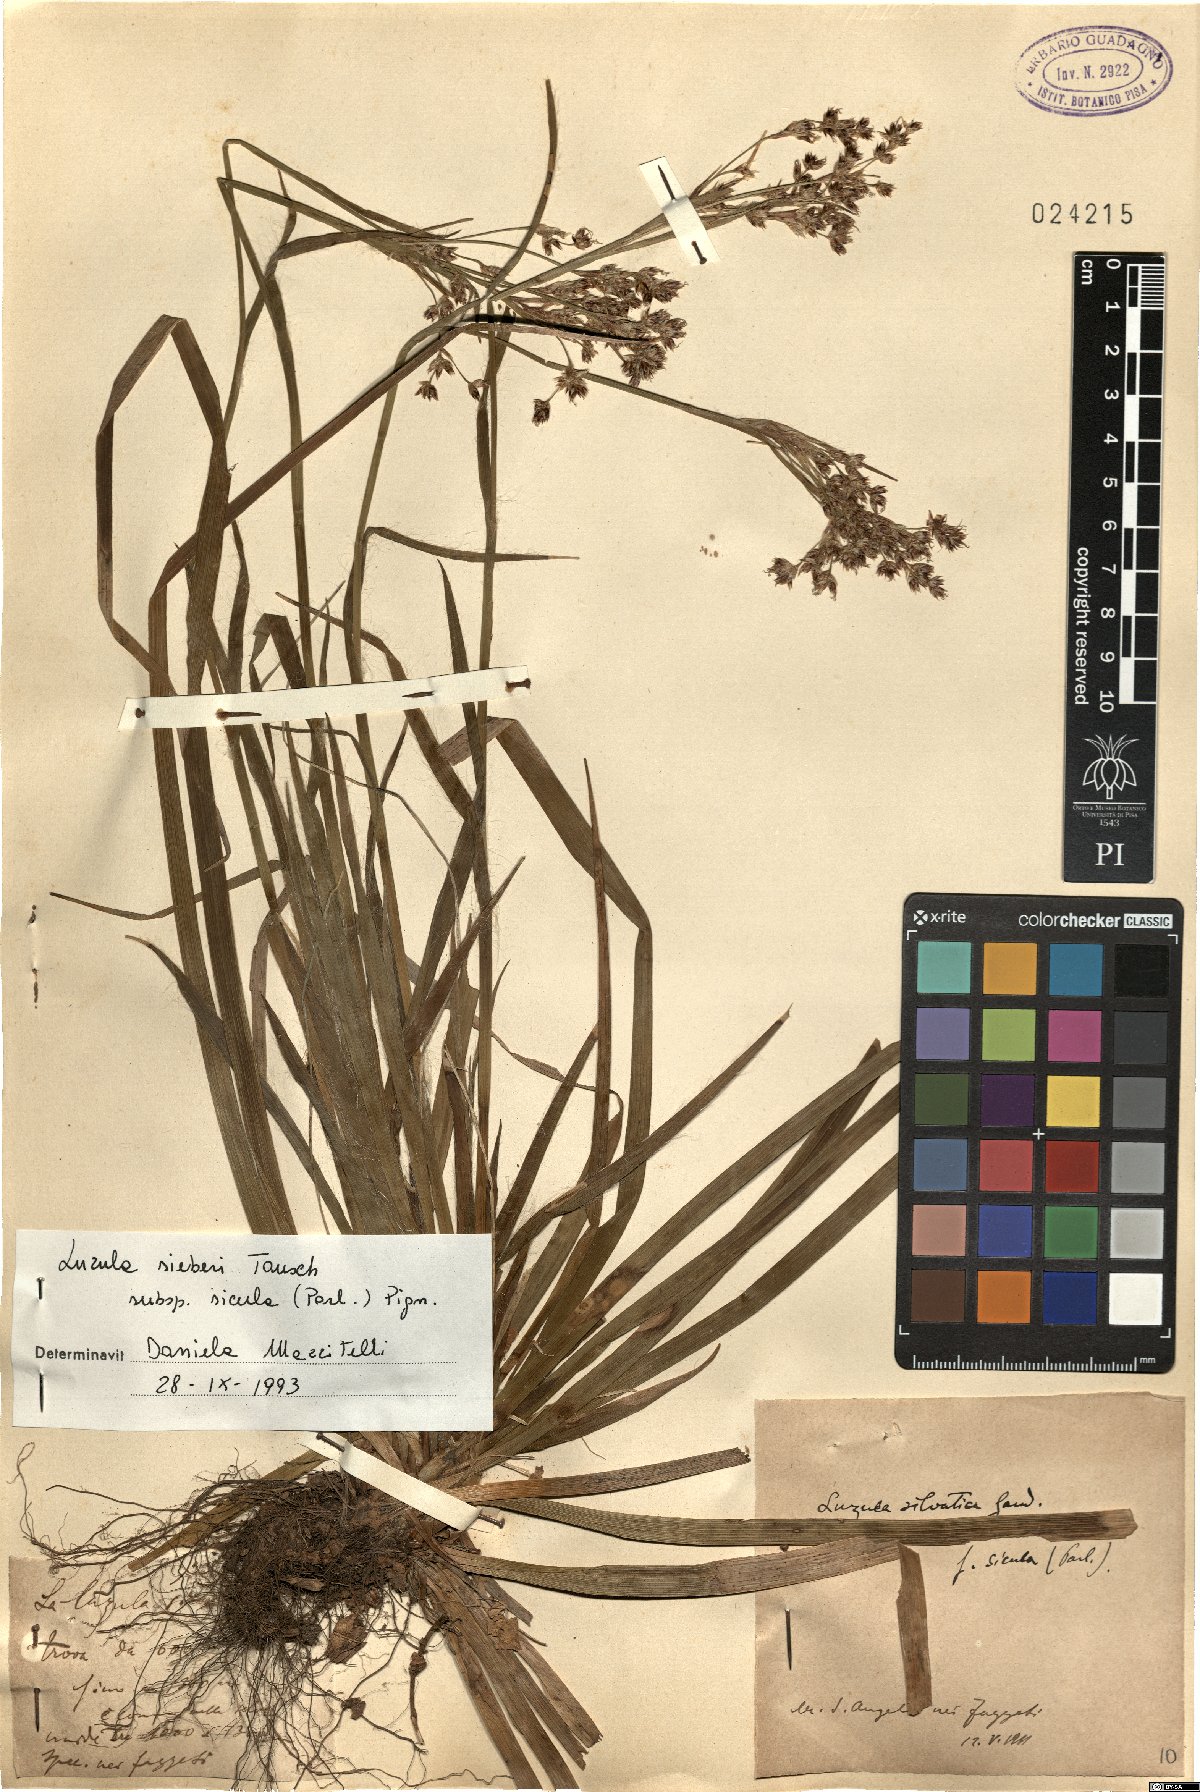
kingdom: Plantae
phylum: Tracheophyta
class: Liliopsida
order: Poales
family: Juncaceae
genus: Luzula
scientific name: Luzula sylvatica
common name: Great wood-rush
